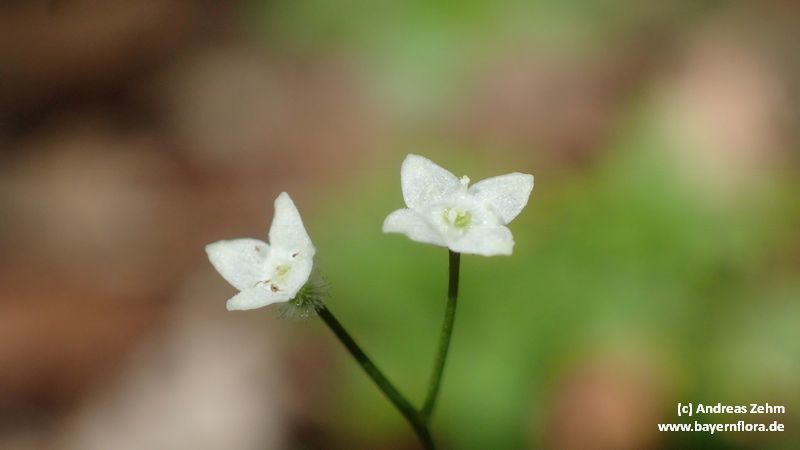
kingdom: Plantae
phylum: Tracheophyta
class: Magnoliopsida
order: Gentianales
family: Rubiaceae
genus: Galium
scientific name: Galium rotundifolium
